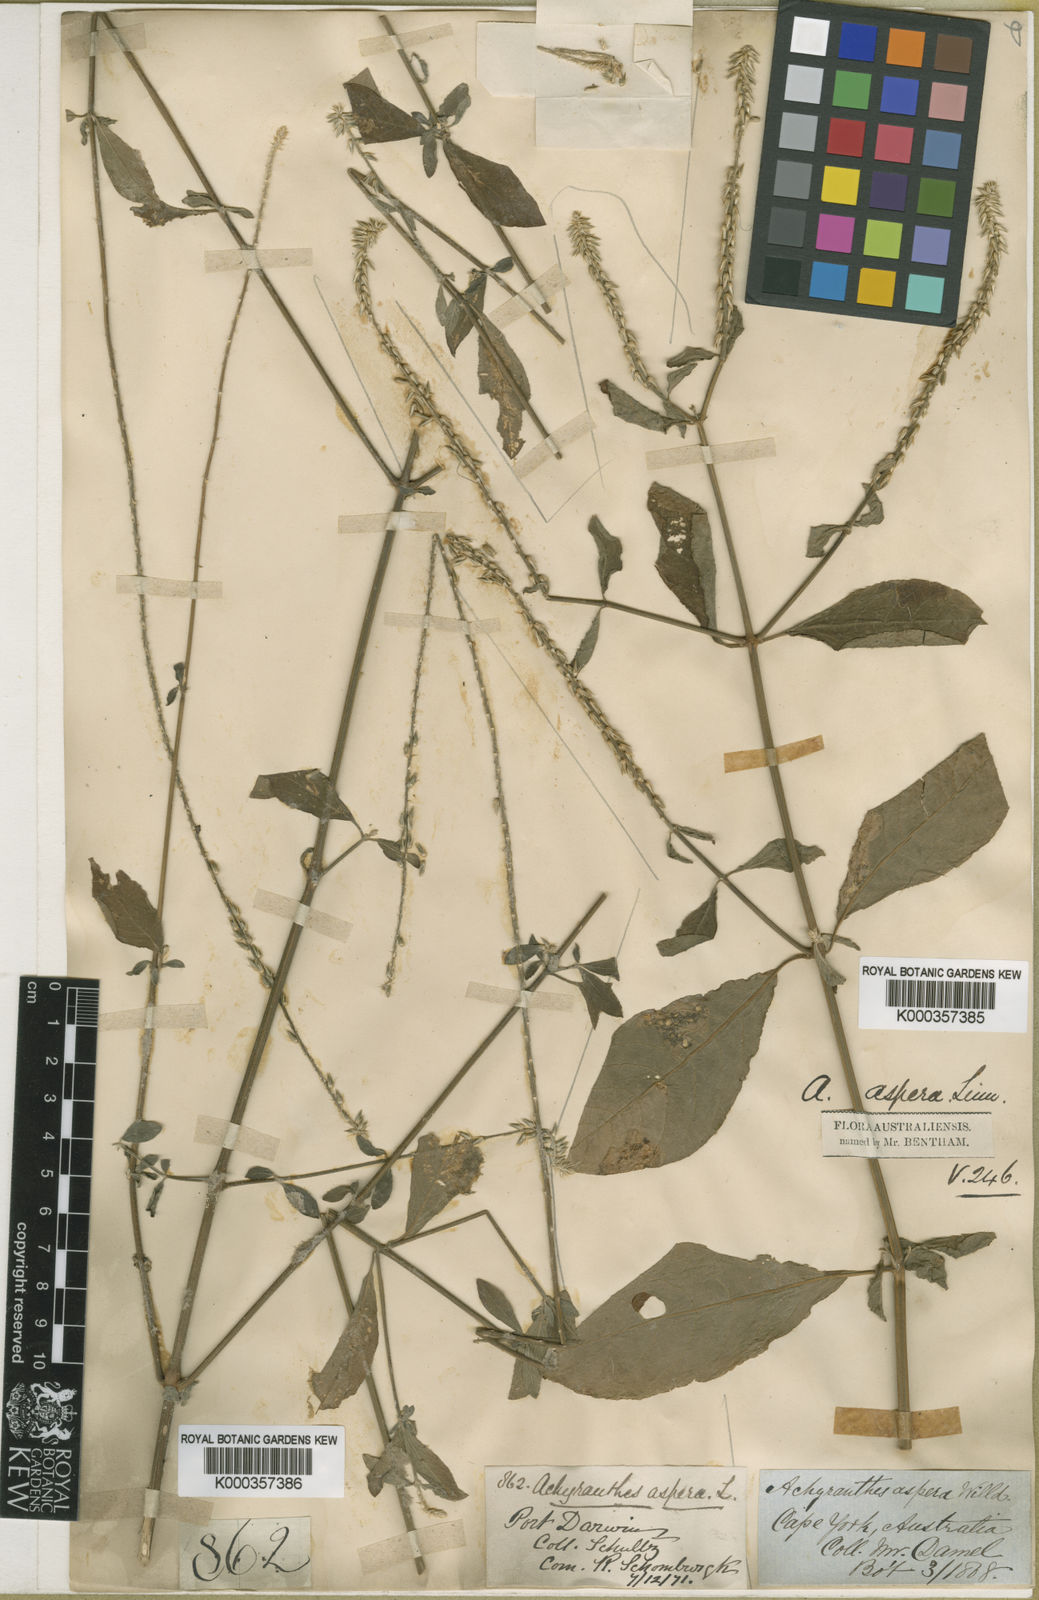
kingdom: Plantae
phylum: Tracheophyta
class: Magnoliopsida
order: Caryophyllales
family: Amaranthaceae
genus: Achyranthes
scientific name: Achyranthes aspera
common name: Devil's horsewhip
